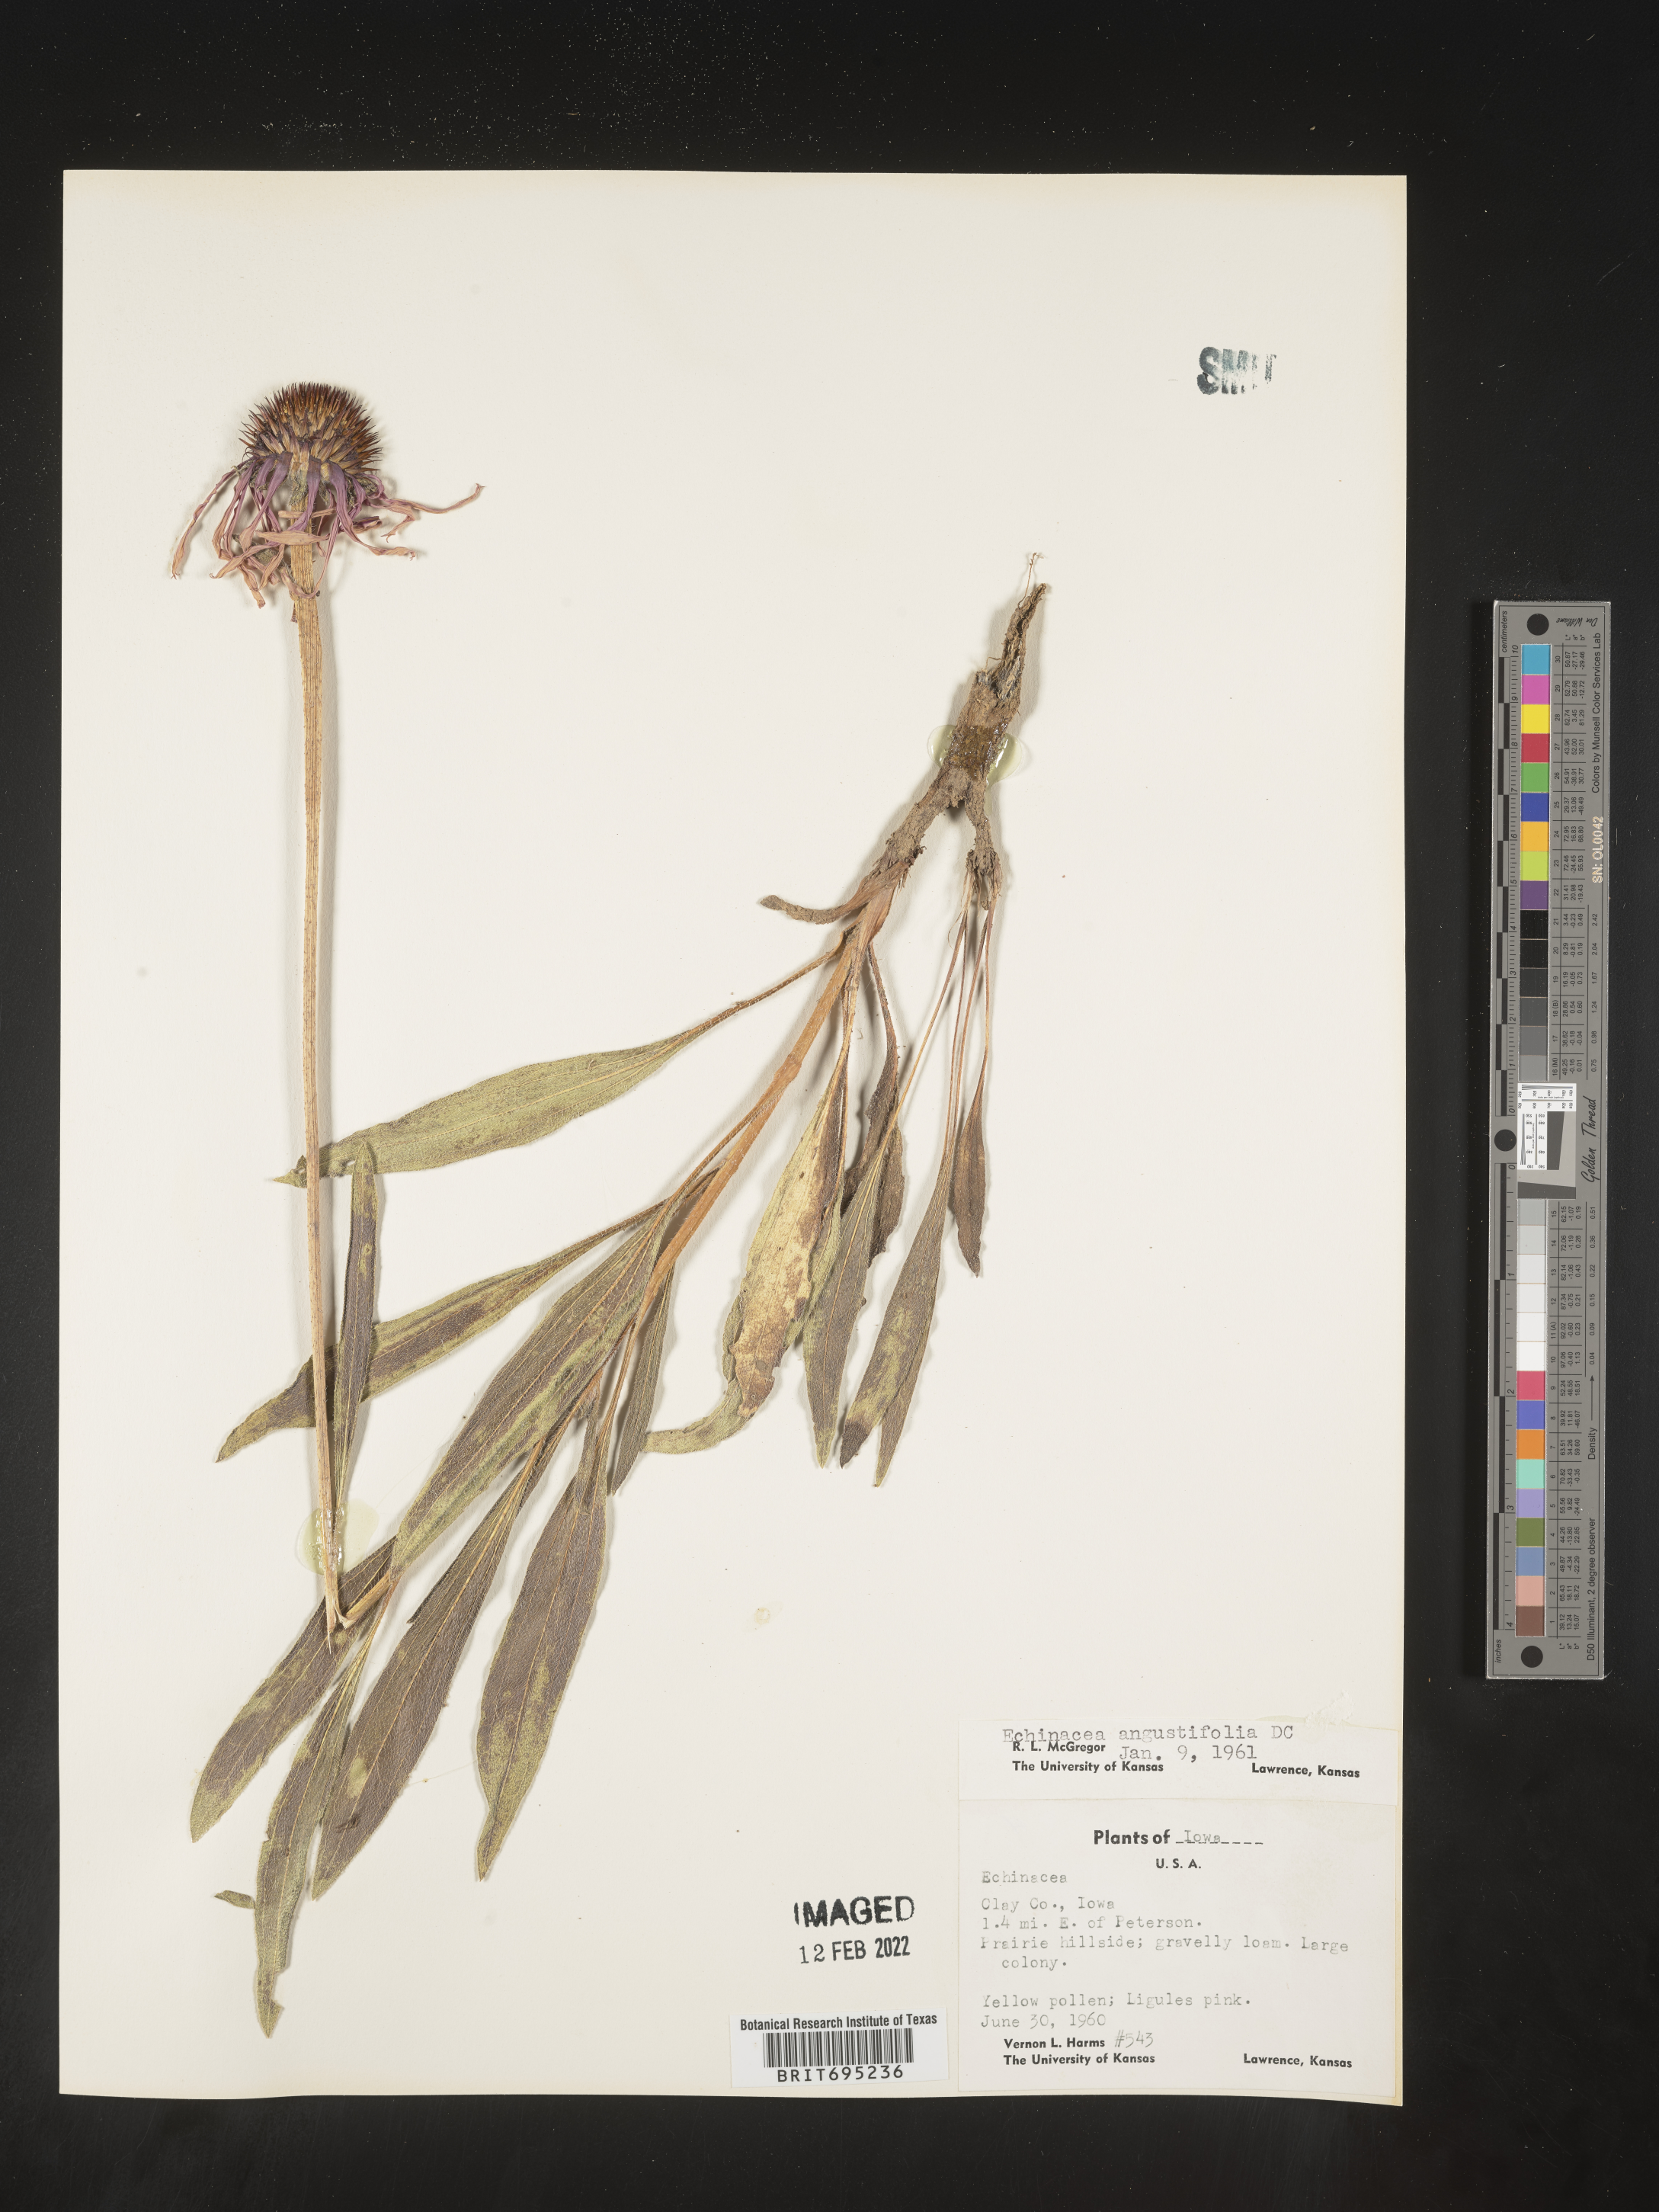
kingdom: Plantae
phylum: Tracheophyta
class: Magnoliopsida
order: Asterales
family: Asteraceae
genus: Echinacea
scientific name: Echinacea angustifolia
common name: Black-sampson echinacea
